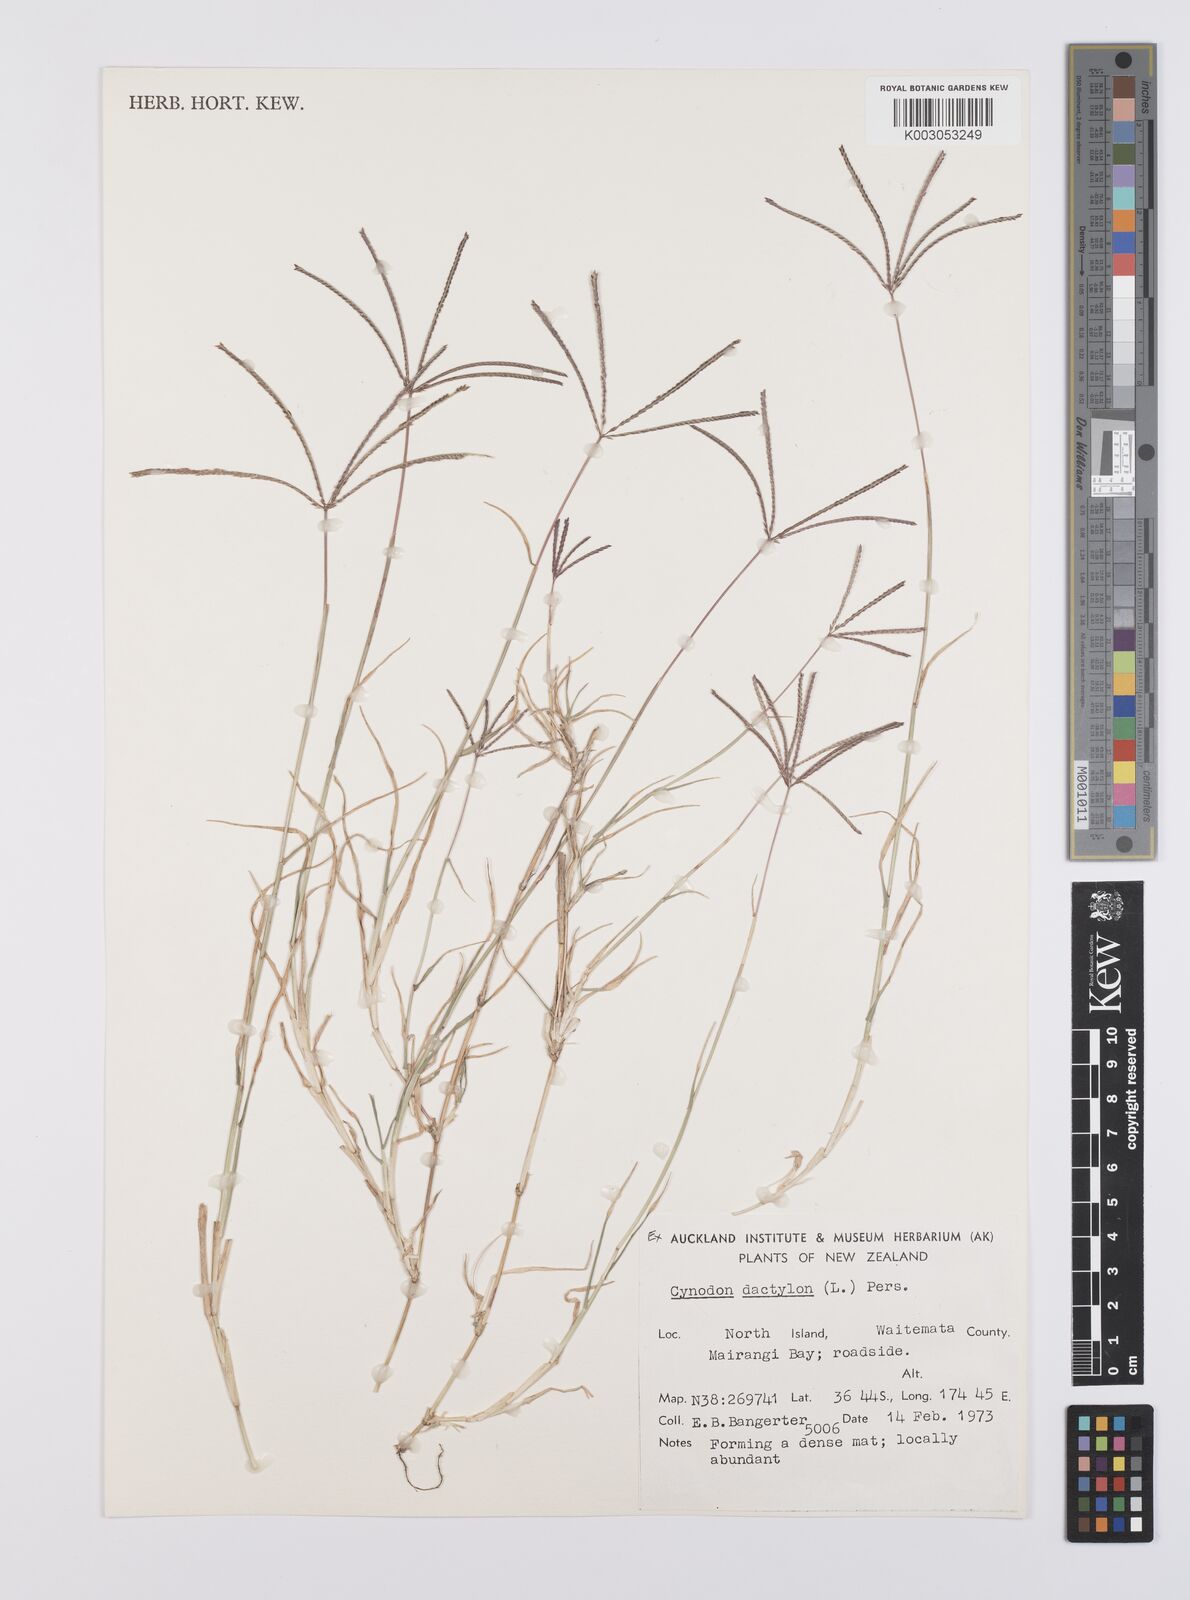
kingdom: Plantae
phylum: Tracheophyta
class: Liliopsida
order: Poales
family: Poaceae
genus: Cynodon
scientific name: Cynodon dactylon
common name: Bermuda grass
